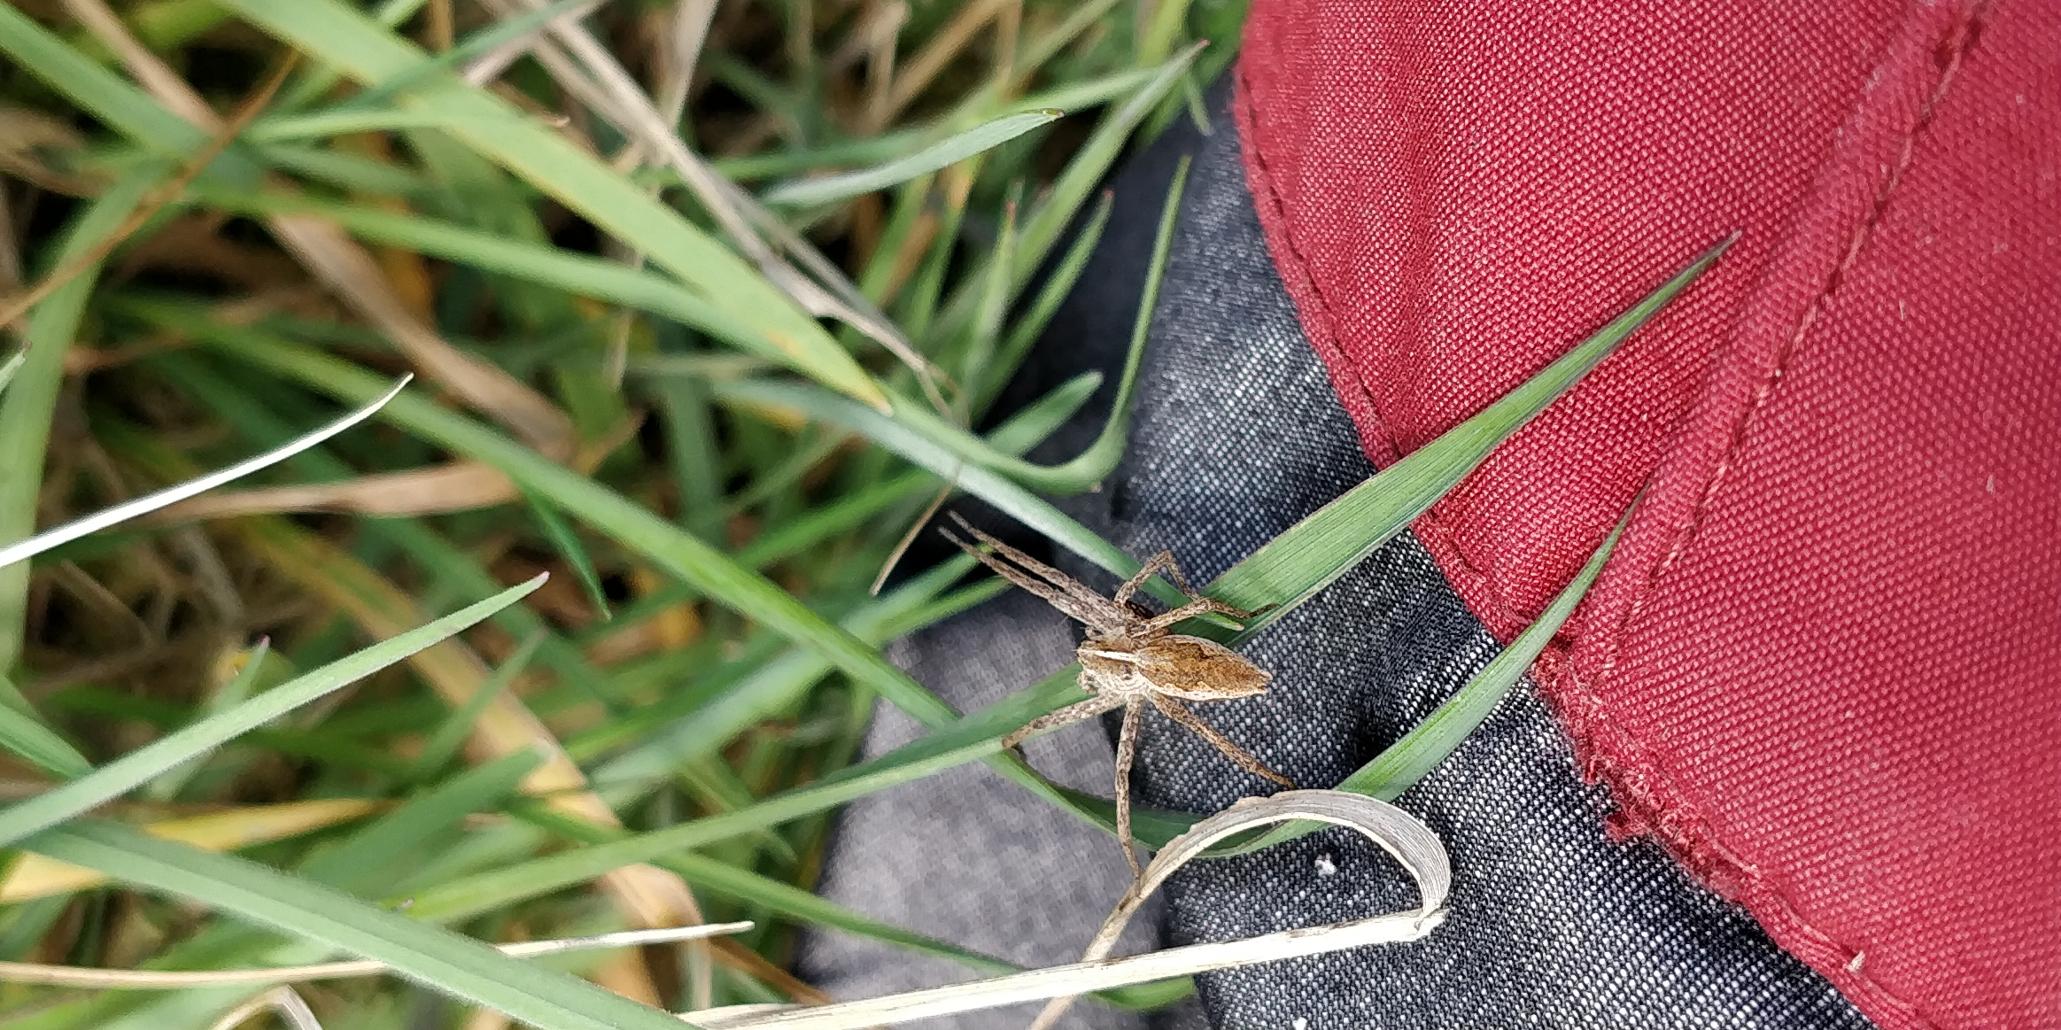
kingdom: Animalia
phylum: Arthropoda
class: Arachnida
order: Araneae
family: Pisauridae
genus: Pisaura
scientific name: Pisaura mirabilis
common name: Almindelig rovedderkop
